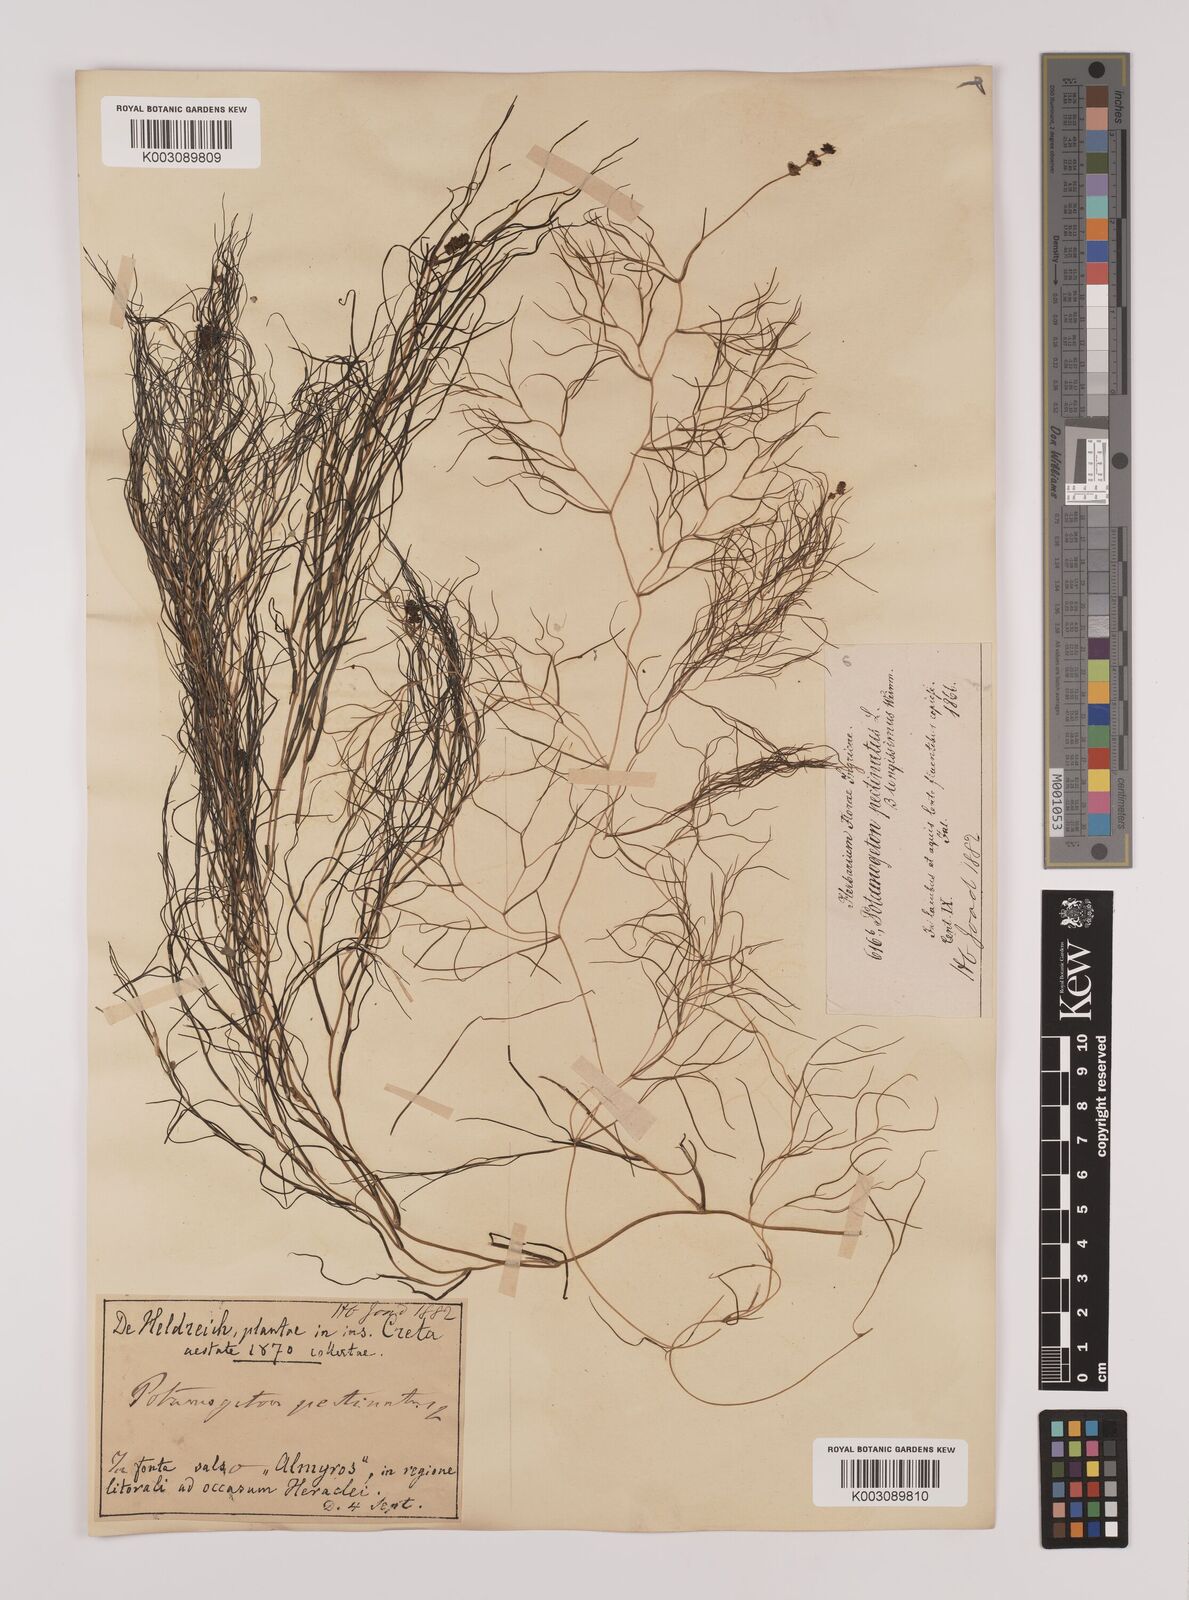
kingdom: Plantae
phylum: Tracheophyta
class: Liliopsida
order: Alismatales
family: Potamogetonaceae
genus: Stuckenia
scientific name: Stuckenia pectinata
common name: Sago pondweed
